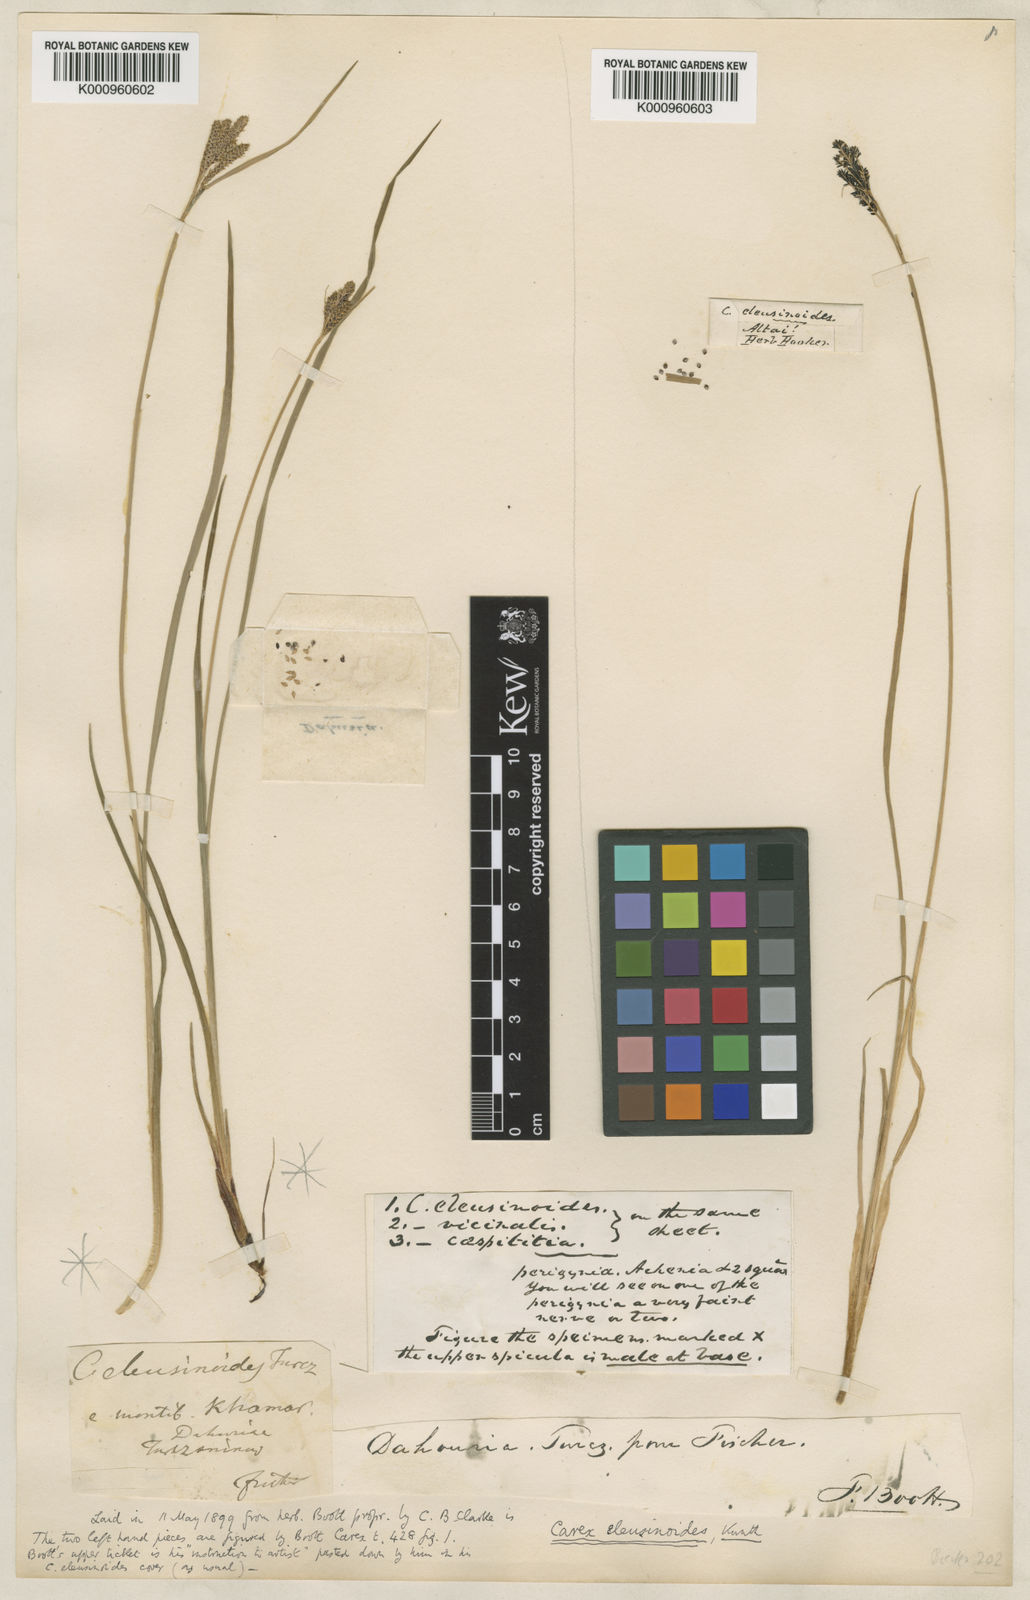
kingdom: Plantae
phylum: Tracheophyta
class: Liliopsida
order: Poales
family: Cyperaceae
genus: Carex
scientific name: Carex eleusinoides
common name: Goosegrass sedge
